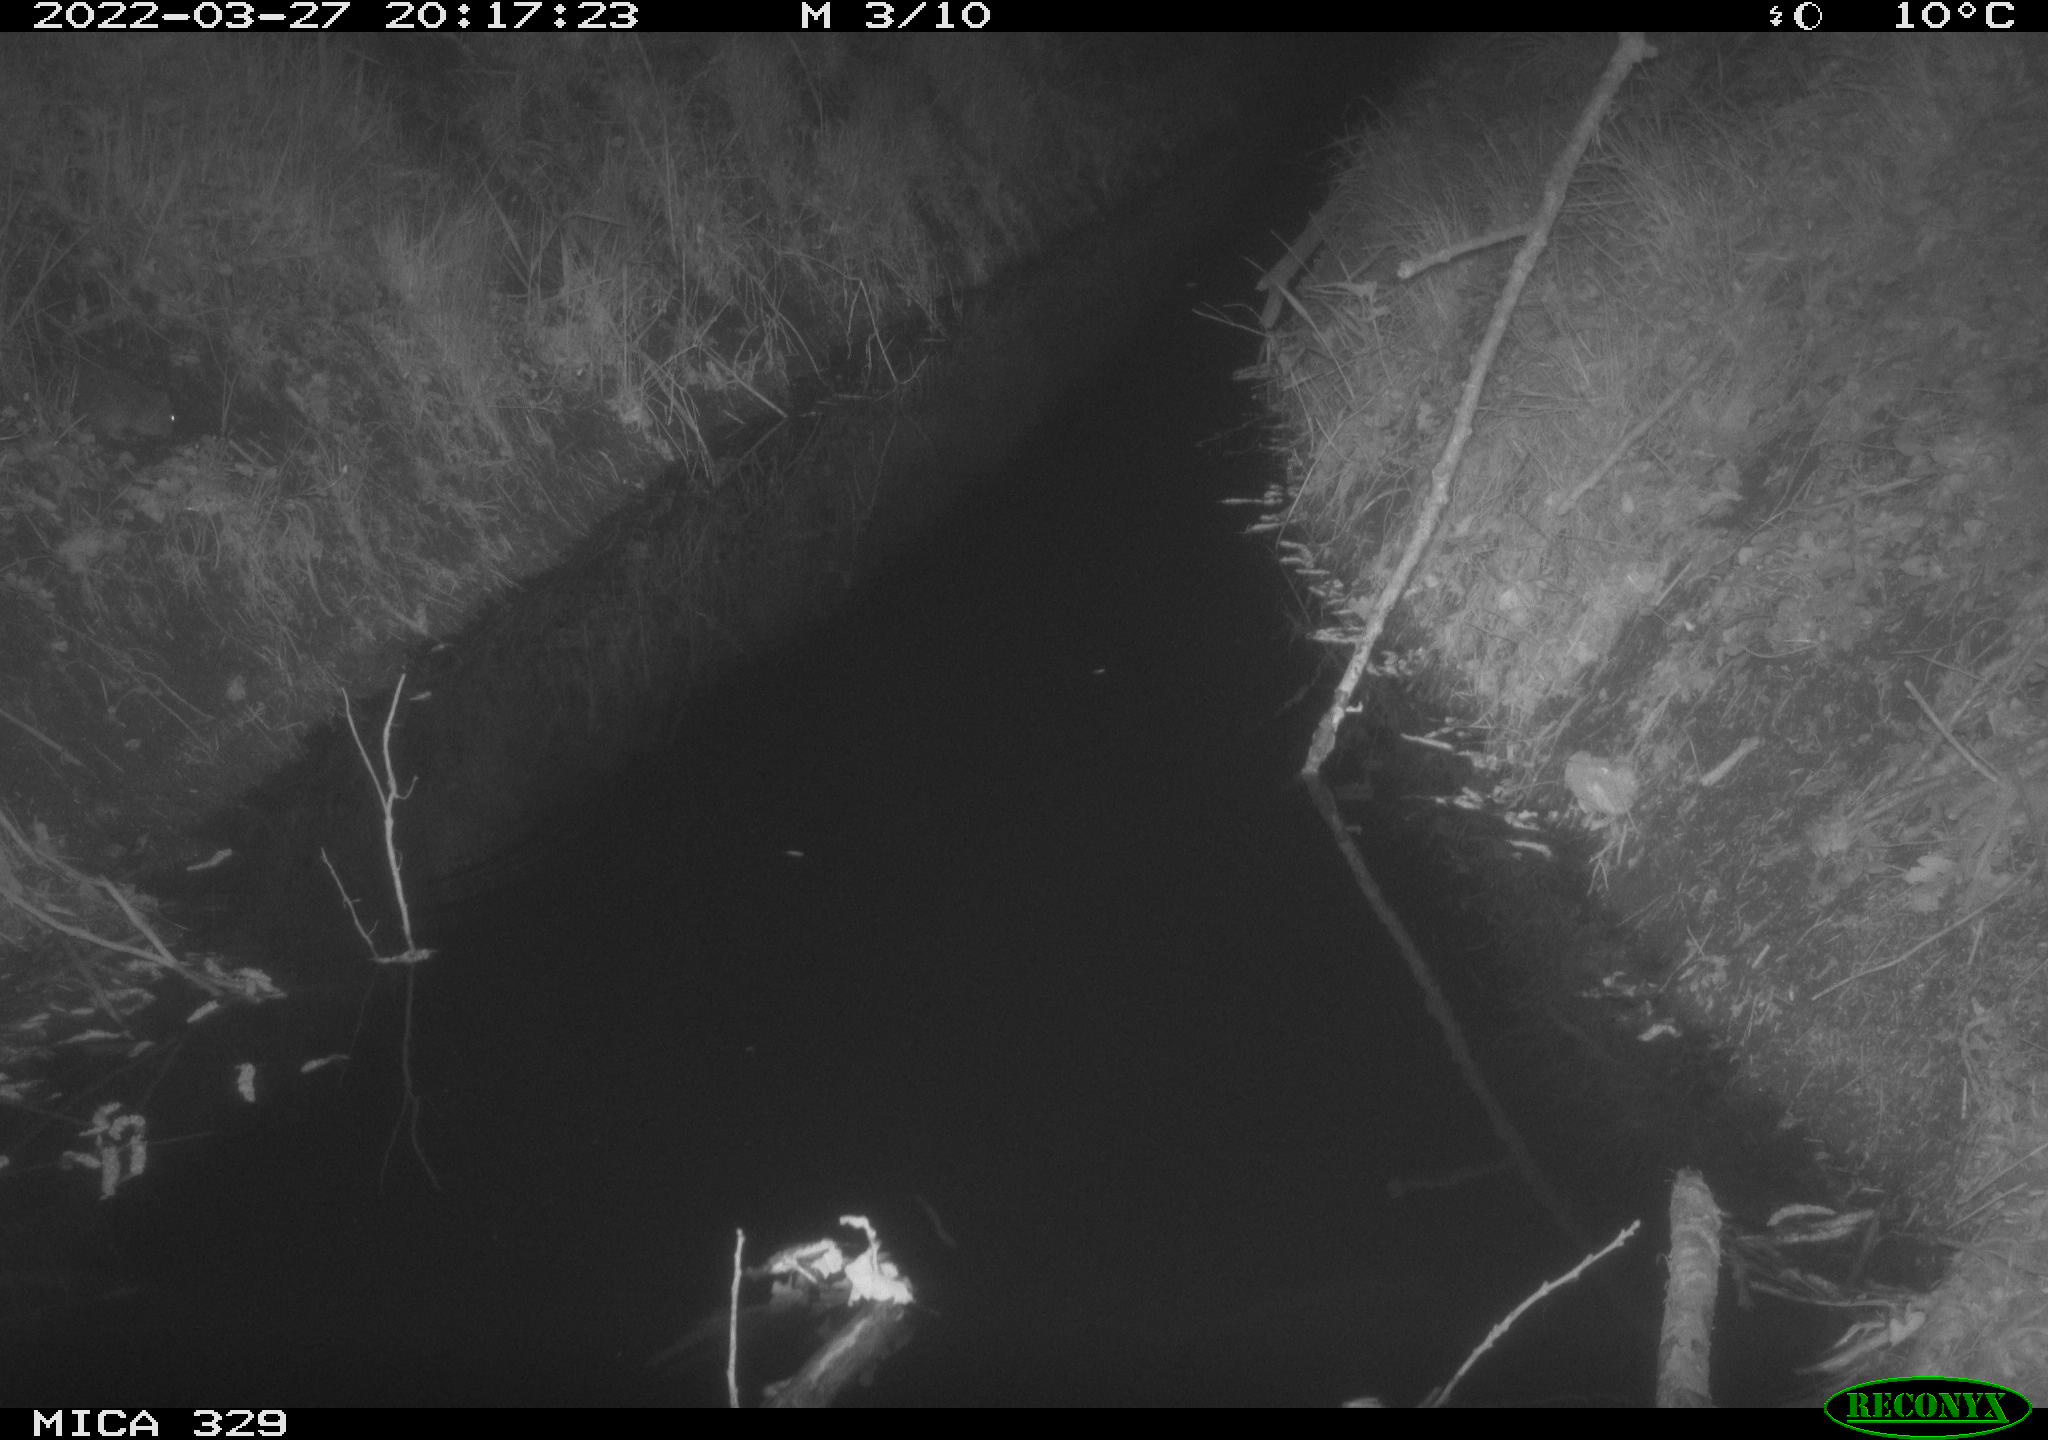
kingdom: Animalia
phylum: Chordata
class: Mammalia
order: Rodentia
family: Muridae
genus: Rattus
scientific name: Rattus norvegicus
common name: Brown rat
